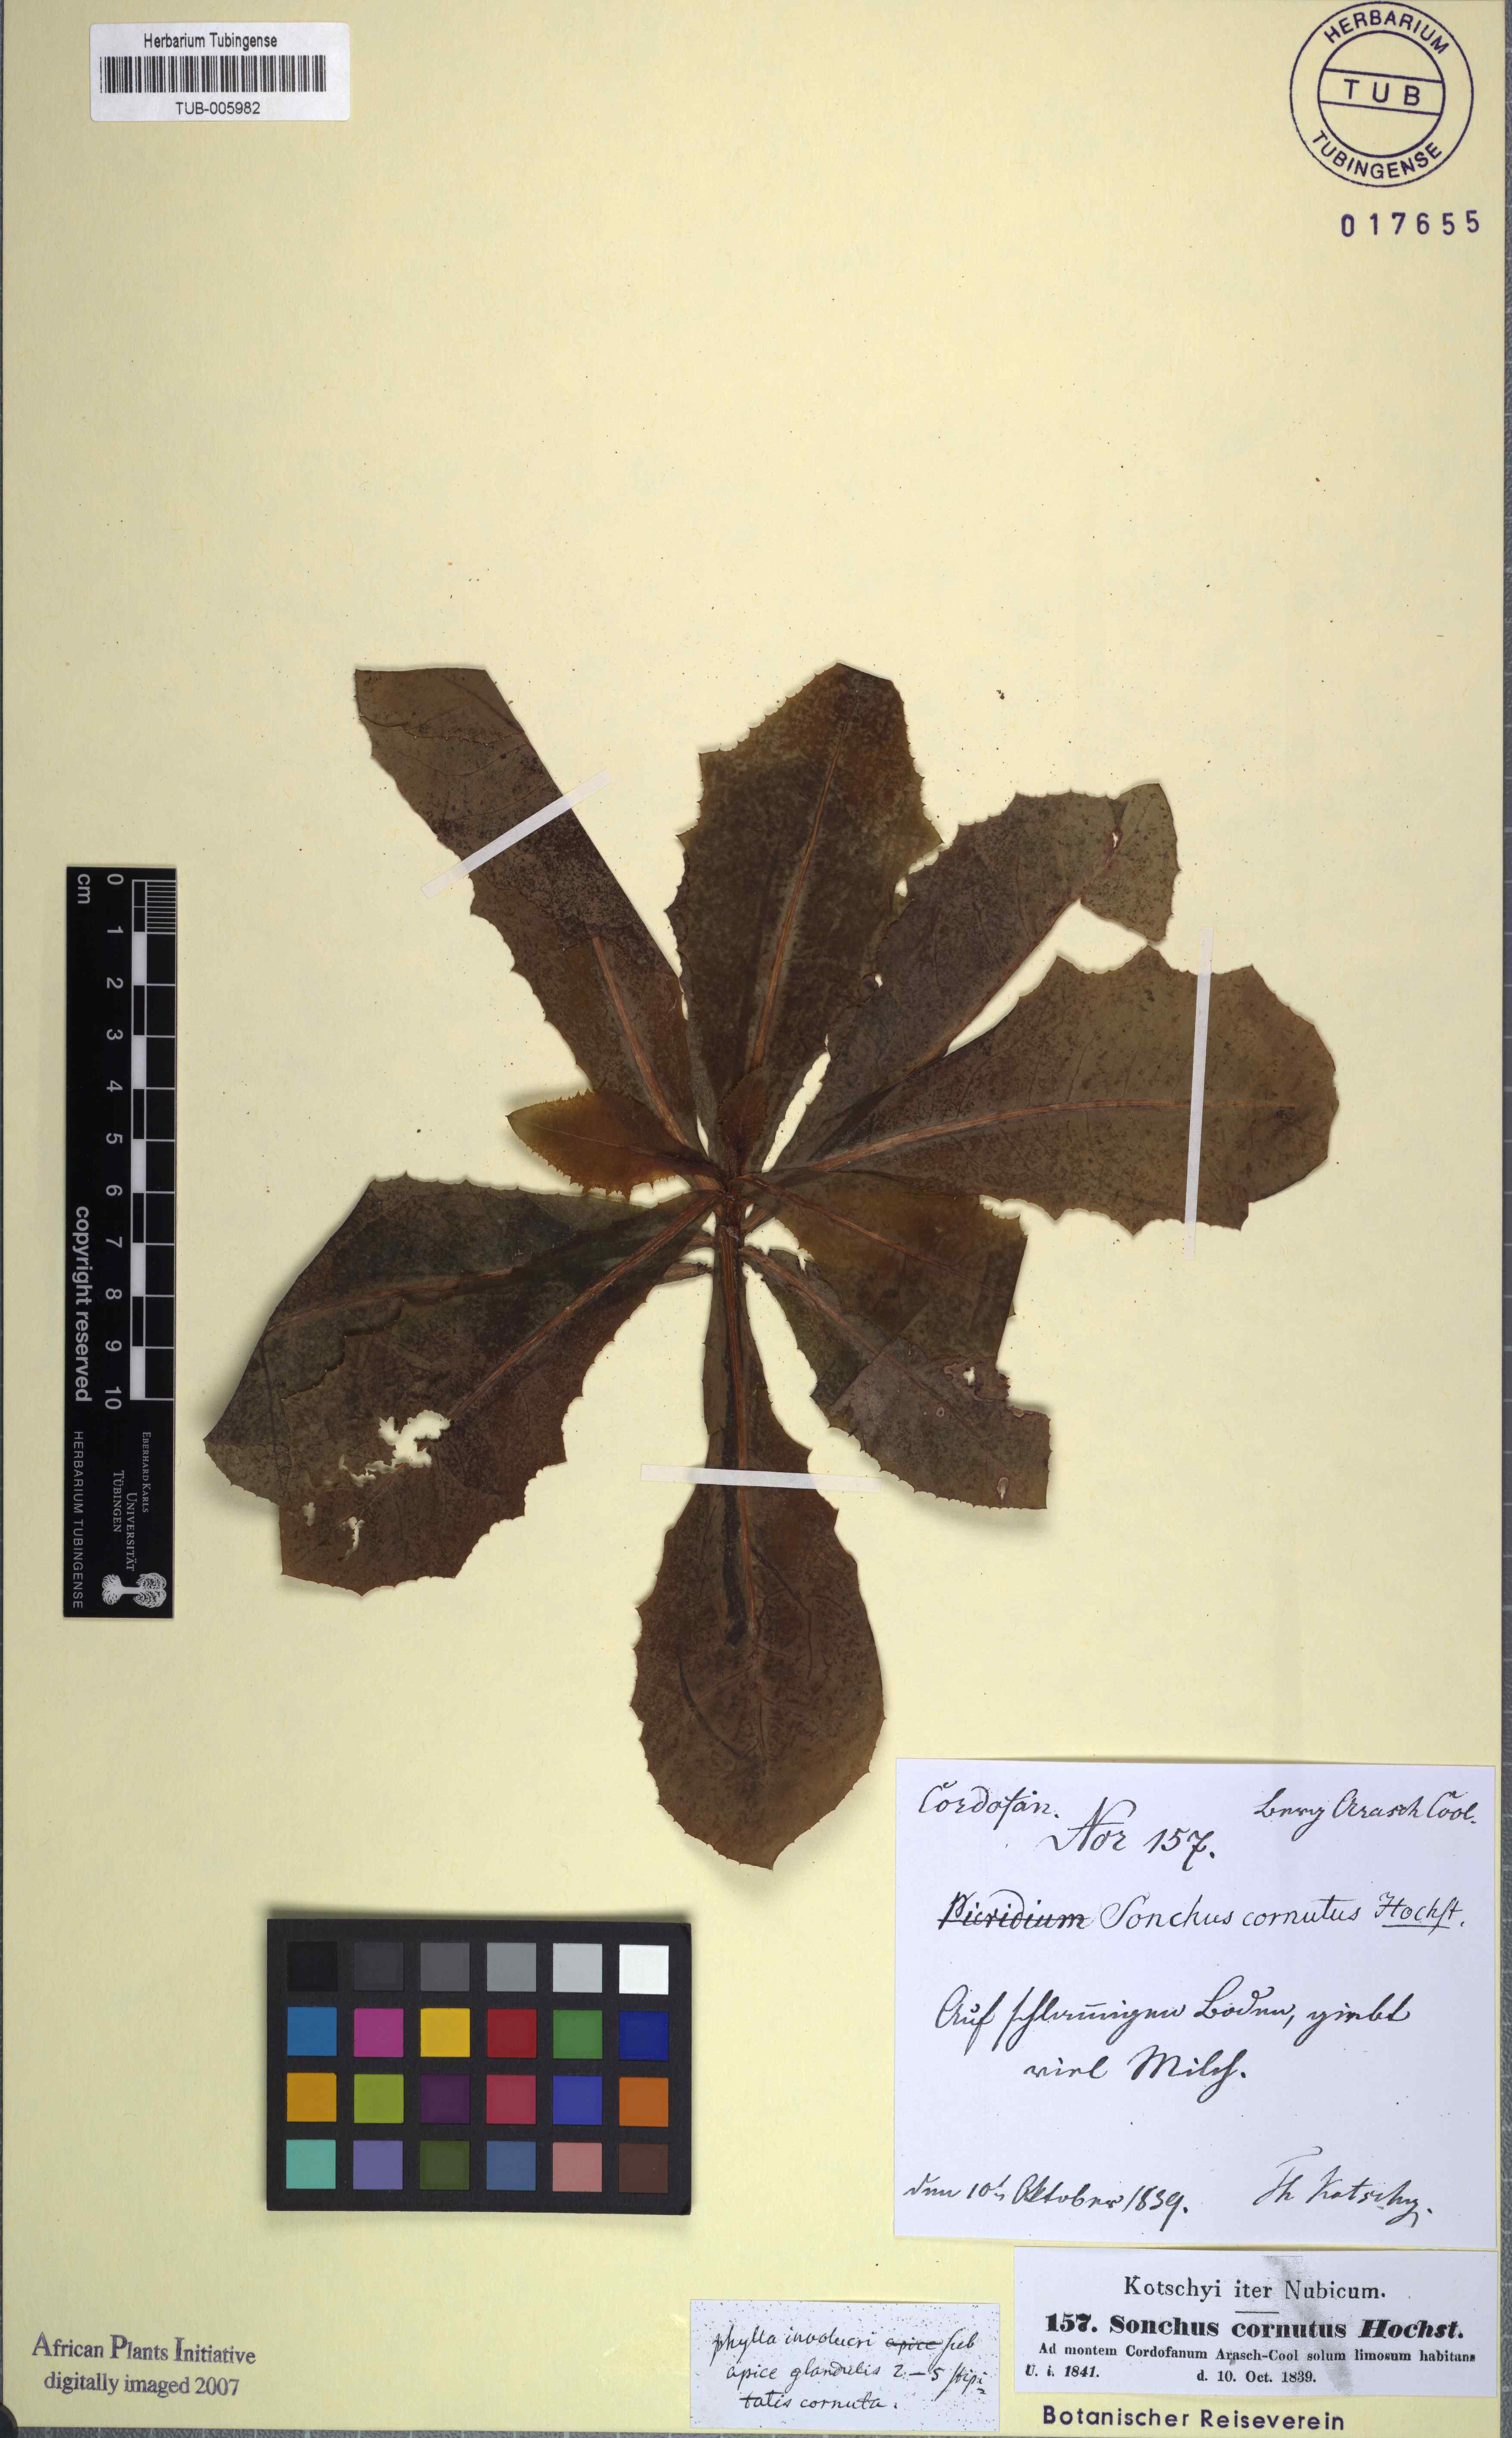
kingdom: Plantae
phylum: Tracheophyta
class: Magnoliopsida
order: Asterales
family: Asteraceae
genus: Launaea
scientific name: Launaea cornuta
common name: Bitter-lettuce
